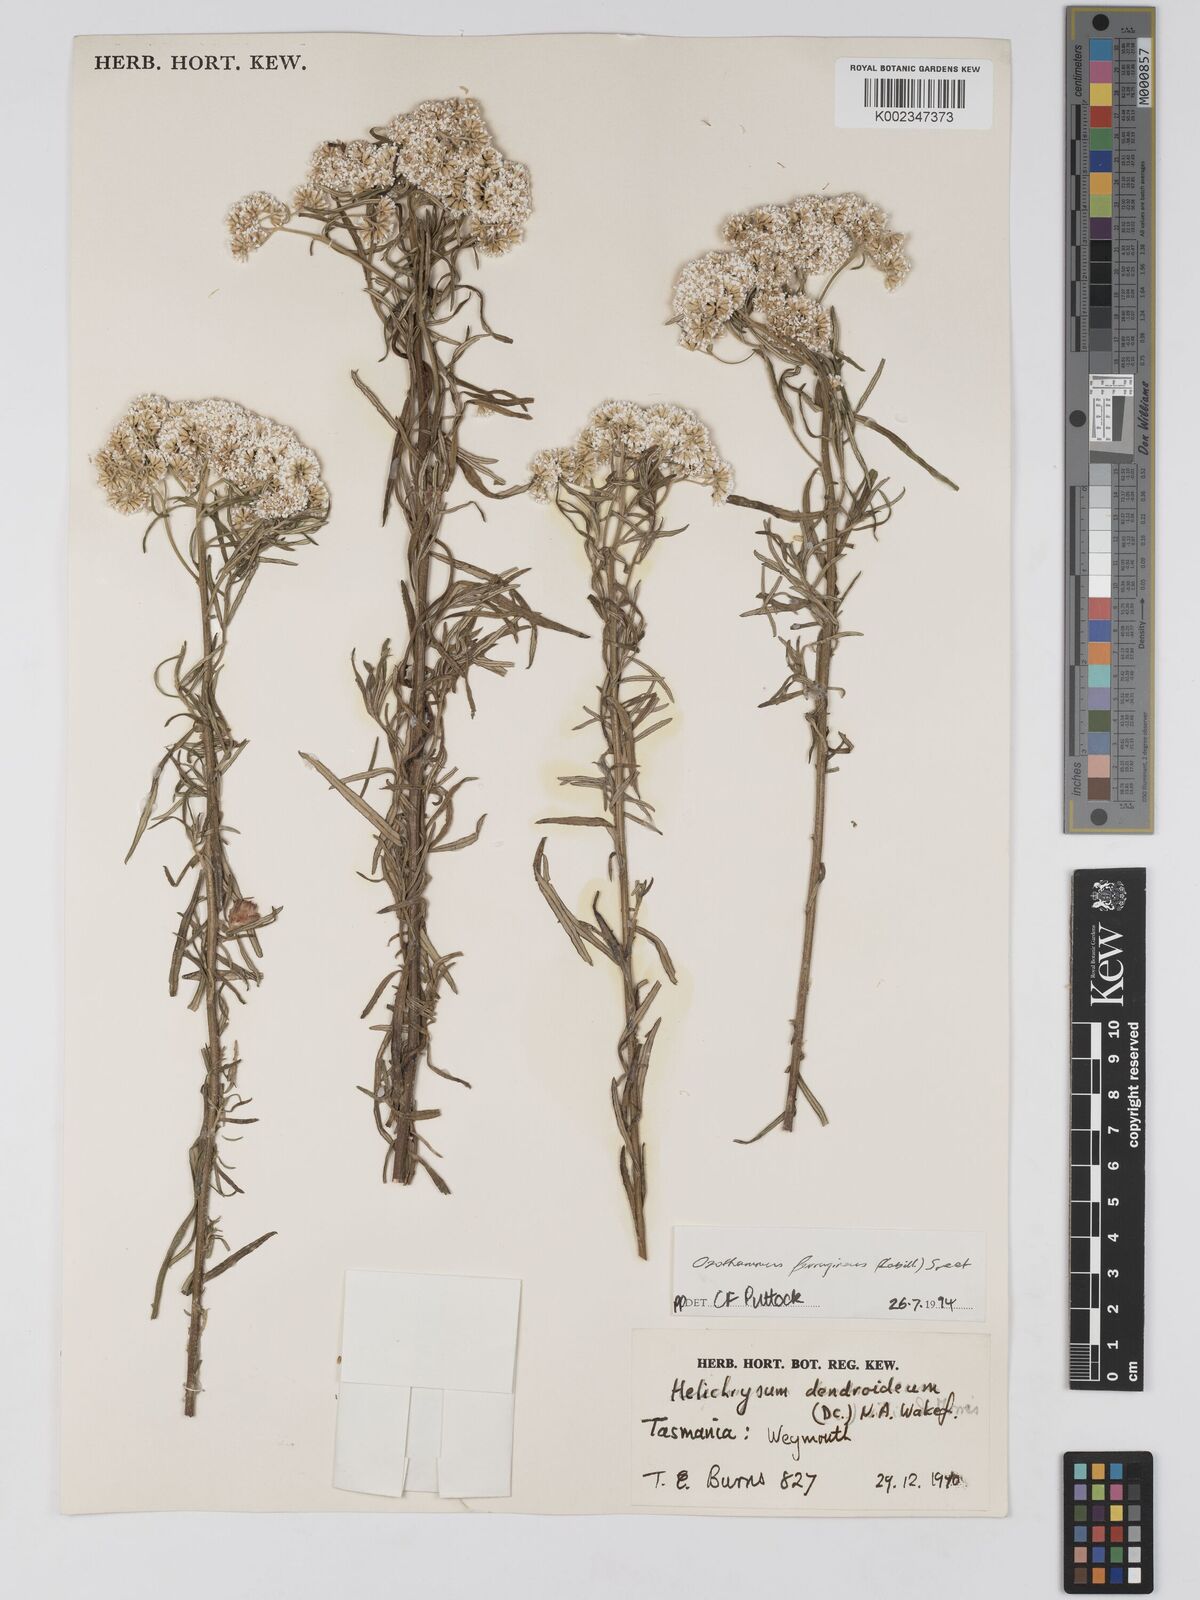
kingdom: Plantae
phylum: Tracheophyta
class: Magnoliopsida
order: Asterales
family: Asteraceae
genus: Ozothamnus
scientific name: Ozothamnus ferrugineus
